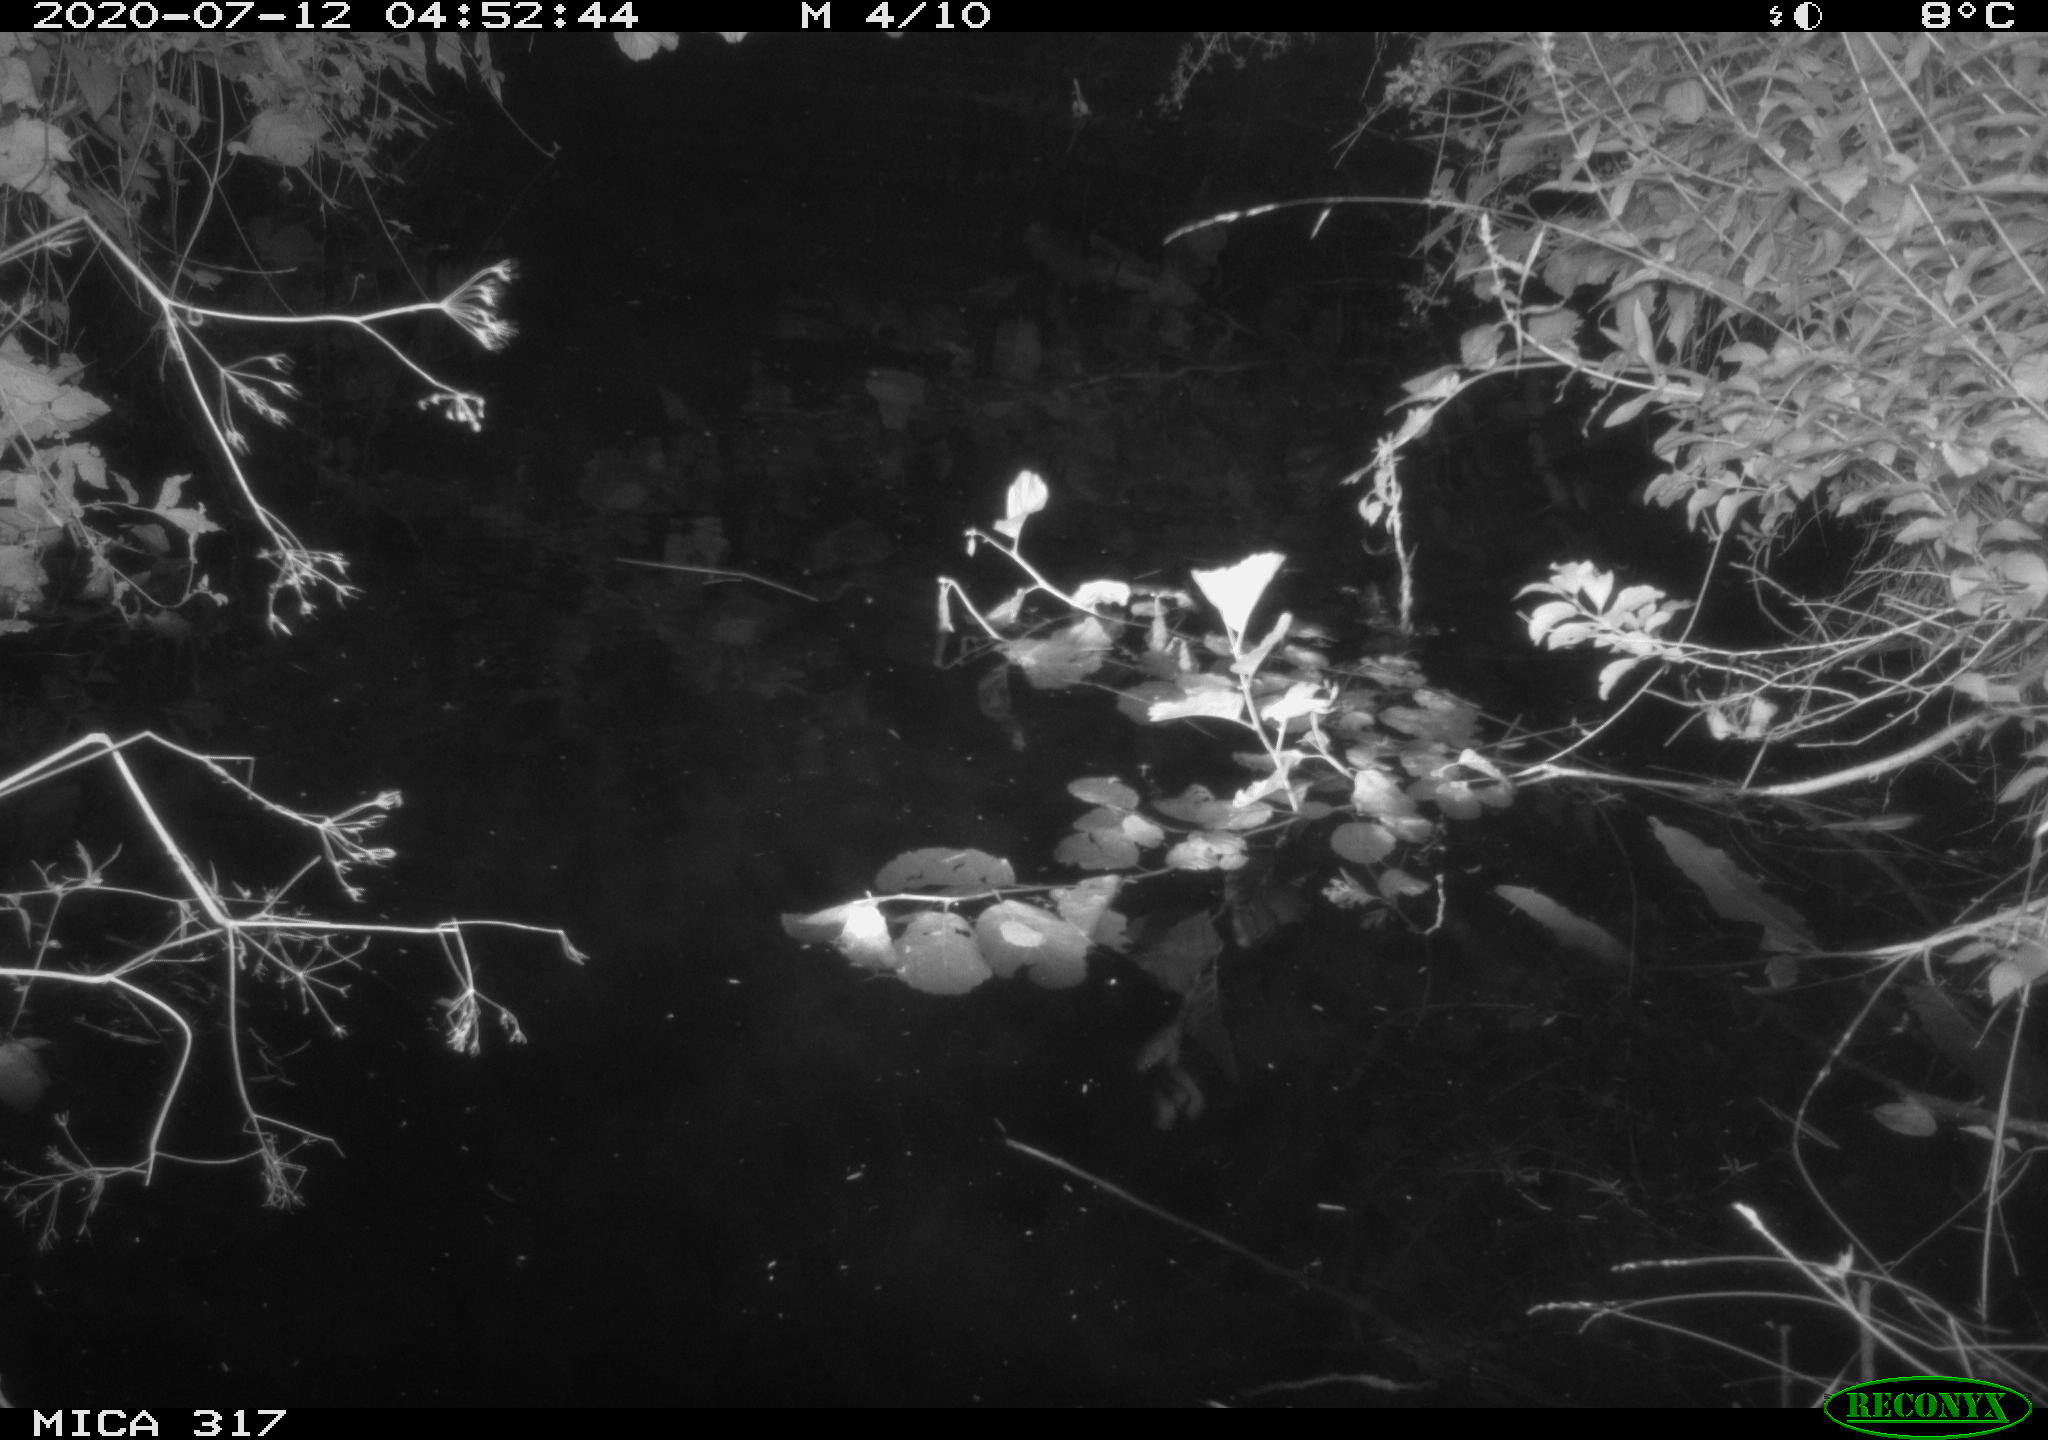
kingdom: Animalia
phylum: Chordata
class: Aves
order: Anseriformes
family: Anatidae
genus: Anas
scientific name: Anas platyrhynchos
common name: Mallard
